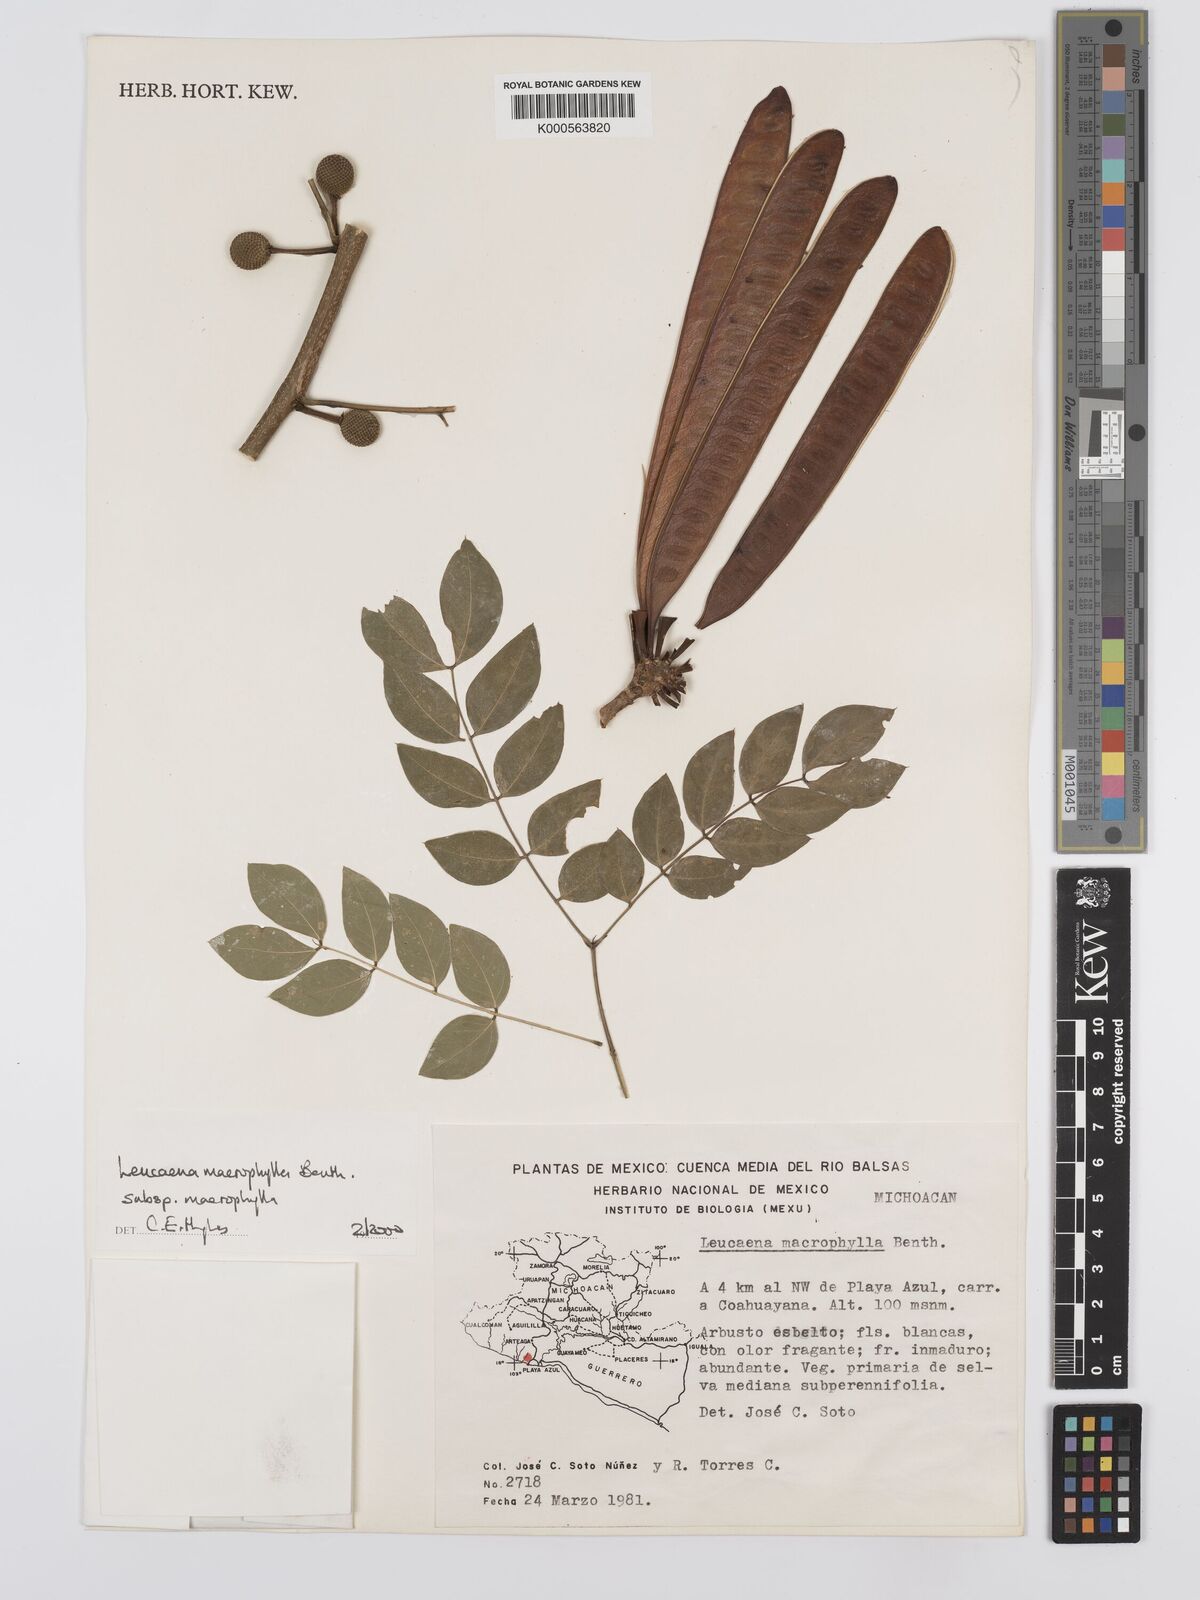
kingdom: Plantae
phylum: Tracheophyta
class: Magnoliopsida
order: Fabales
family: Fabaceae
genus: Leucaena
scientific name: Leucaena macrophylla
